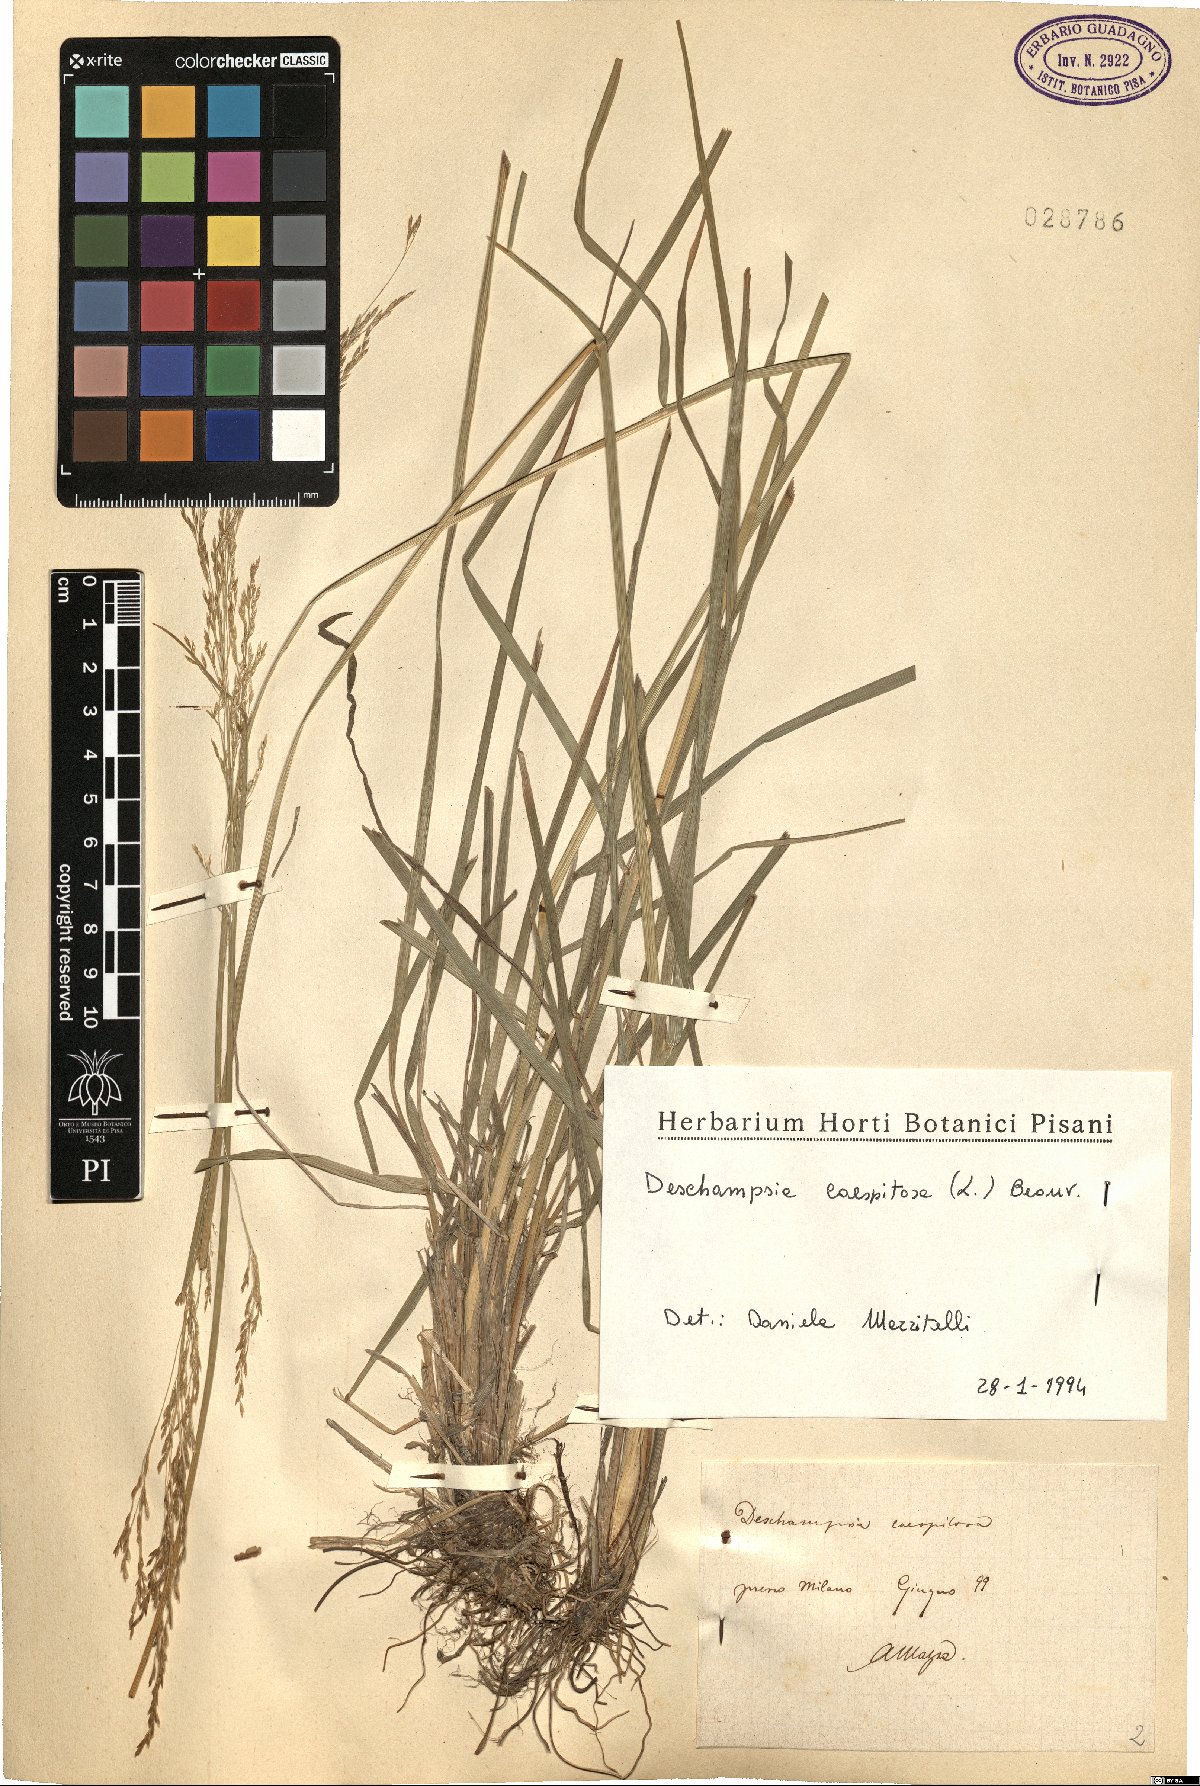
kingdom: Plantae
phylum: Tracheophyta
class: Liliopsida
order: Poales
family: Poaceae
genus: Deschampsia
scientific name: Deschampsia cespitosa
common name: Tufted hair-grass
